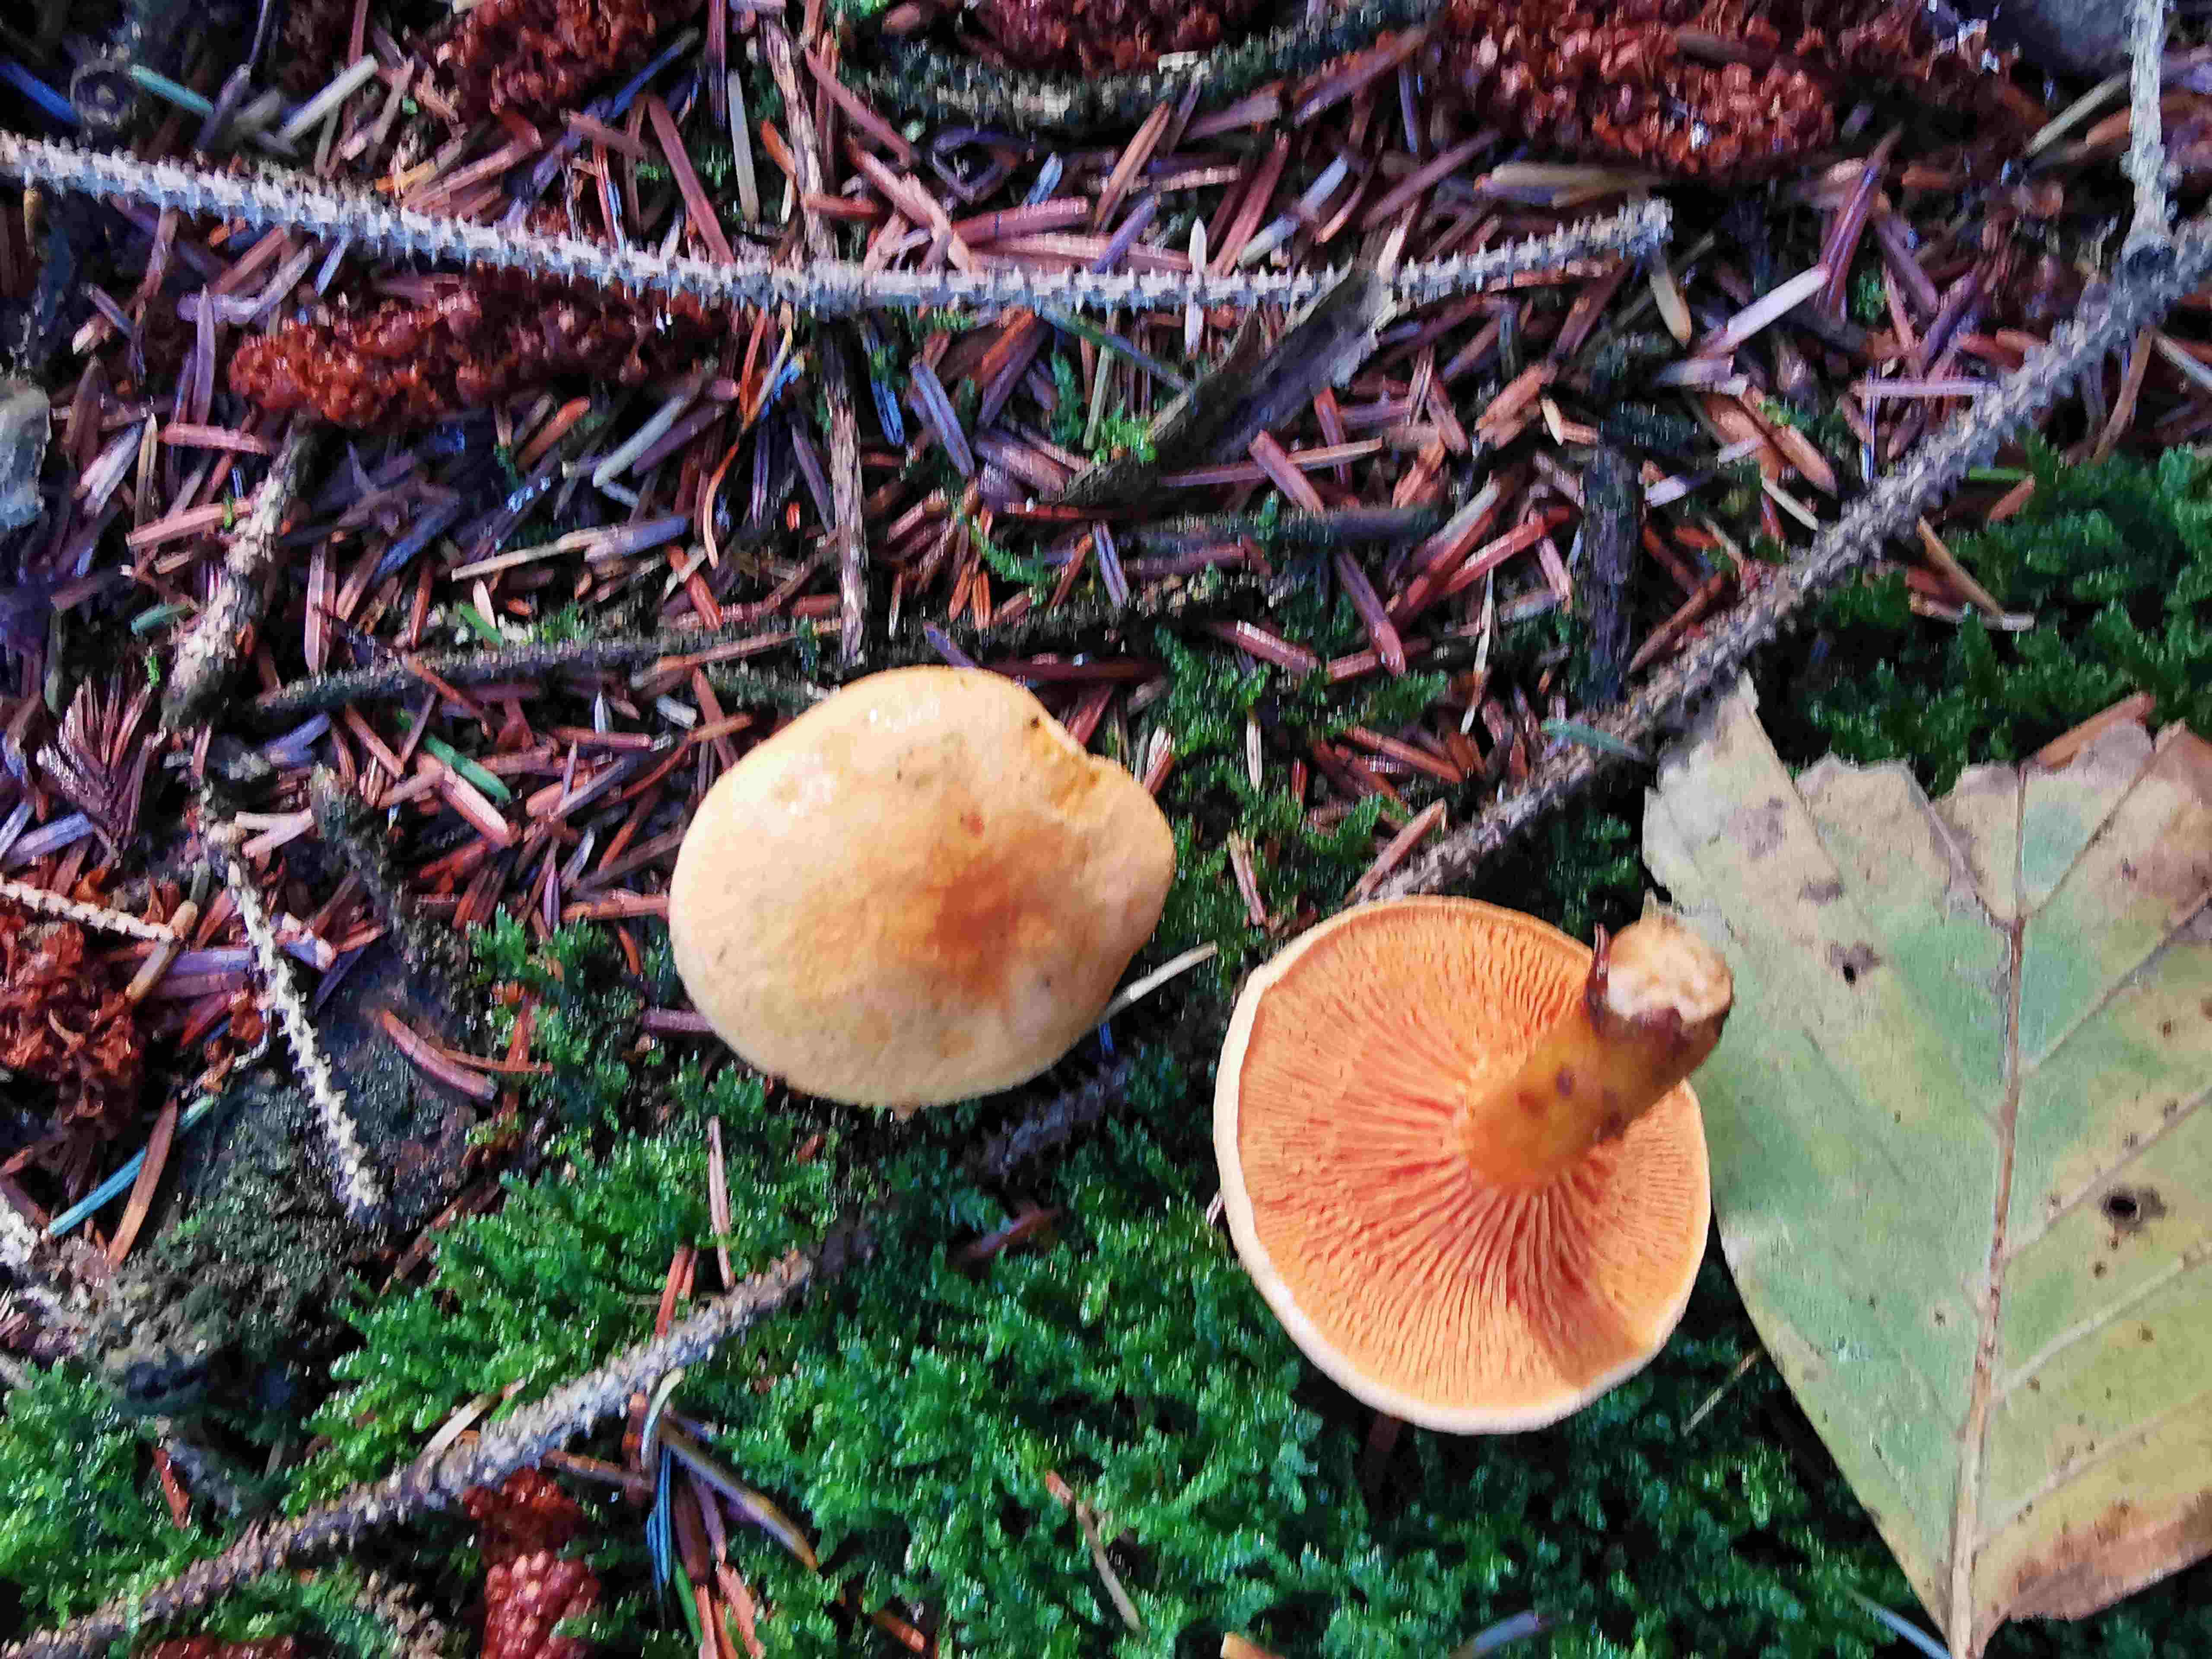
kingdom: Fungi
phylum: Basidiomycota
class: Agaricomycetes
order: Boletales
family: Hygrophoropsidaceae
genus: Hygrophoropsis
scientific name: Hygrophoropsis aurantiaca
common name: almindelig orangekantarel
